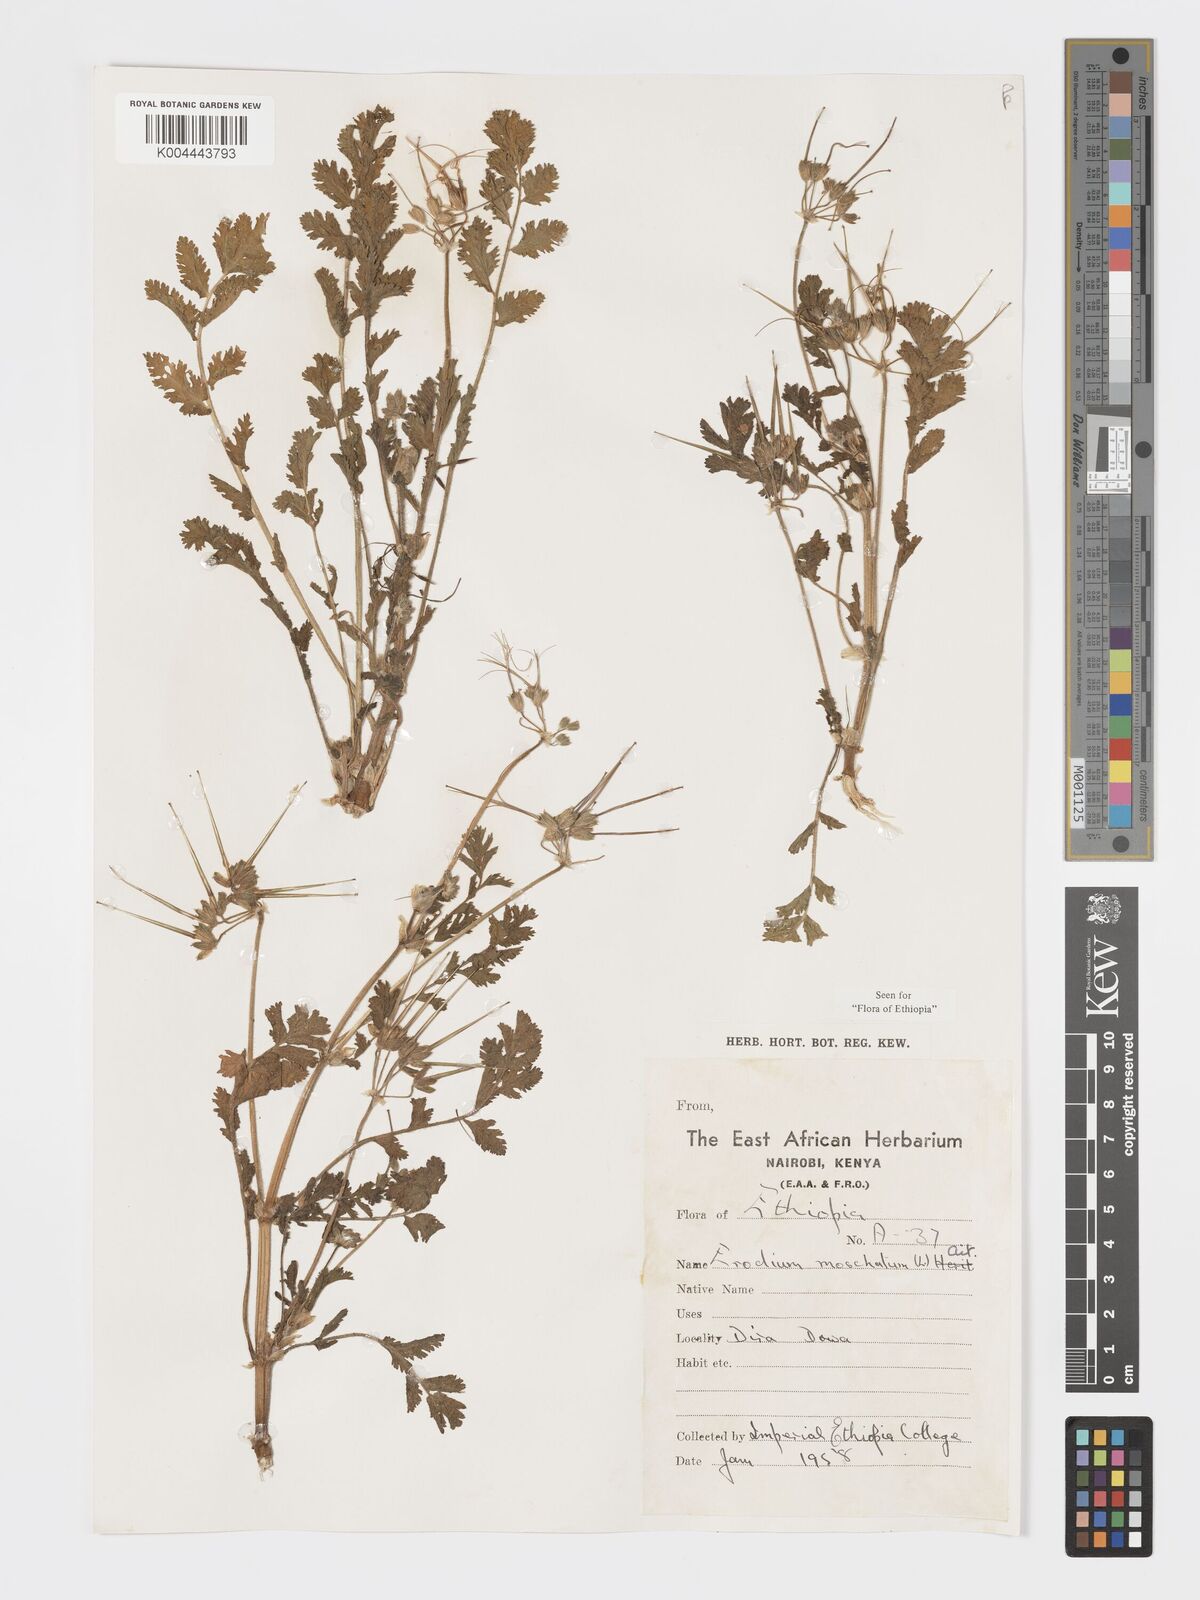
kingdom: Plantae
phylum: Tracheophyta
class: Magnoliopsida
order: Geraniales
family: Geraniaceae
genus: Erodium
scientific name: Erodium moschatum
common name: Musk stork's-bill
